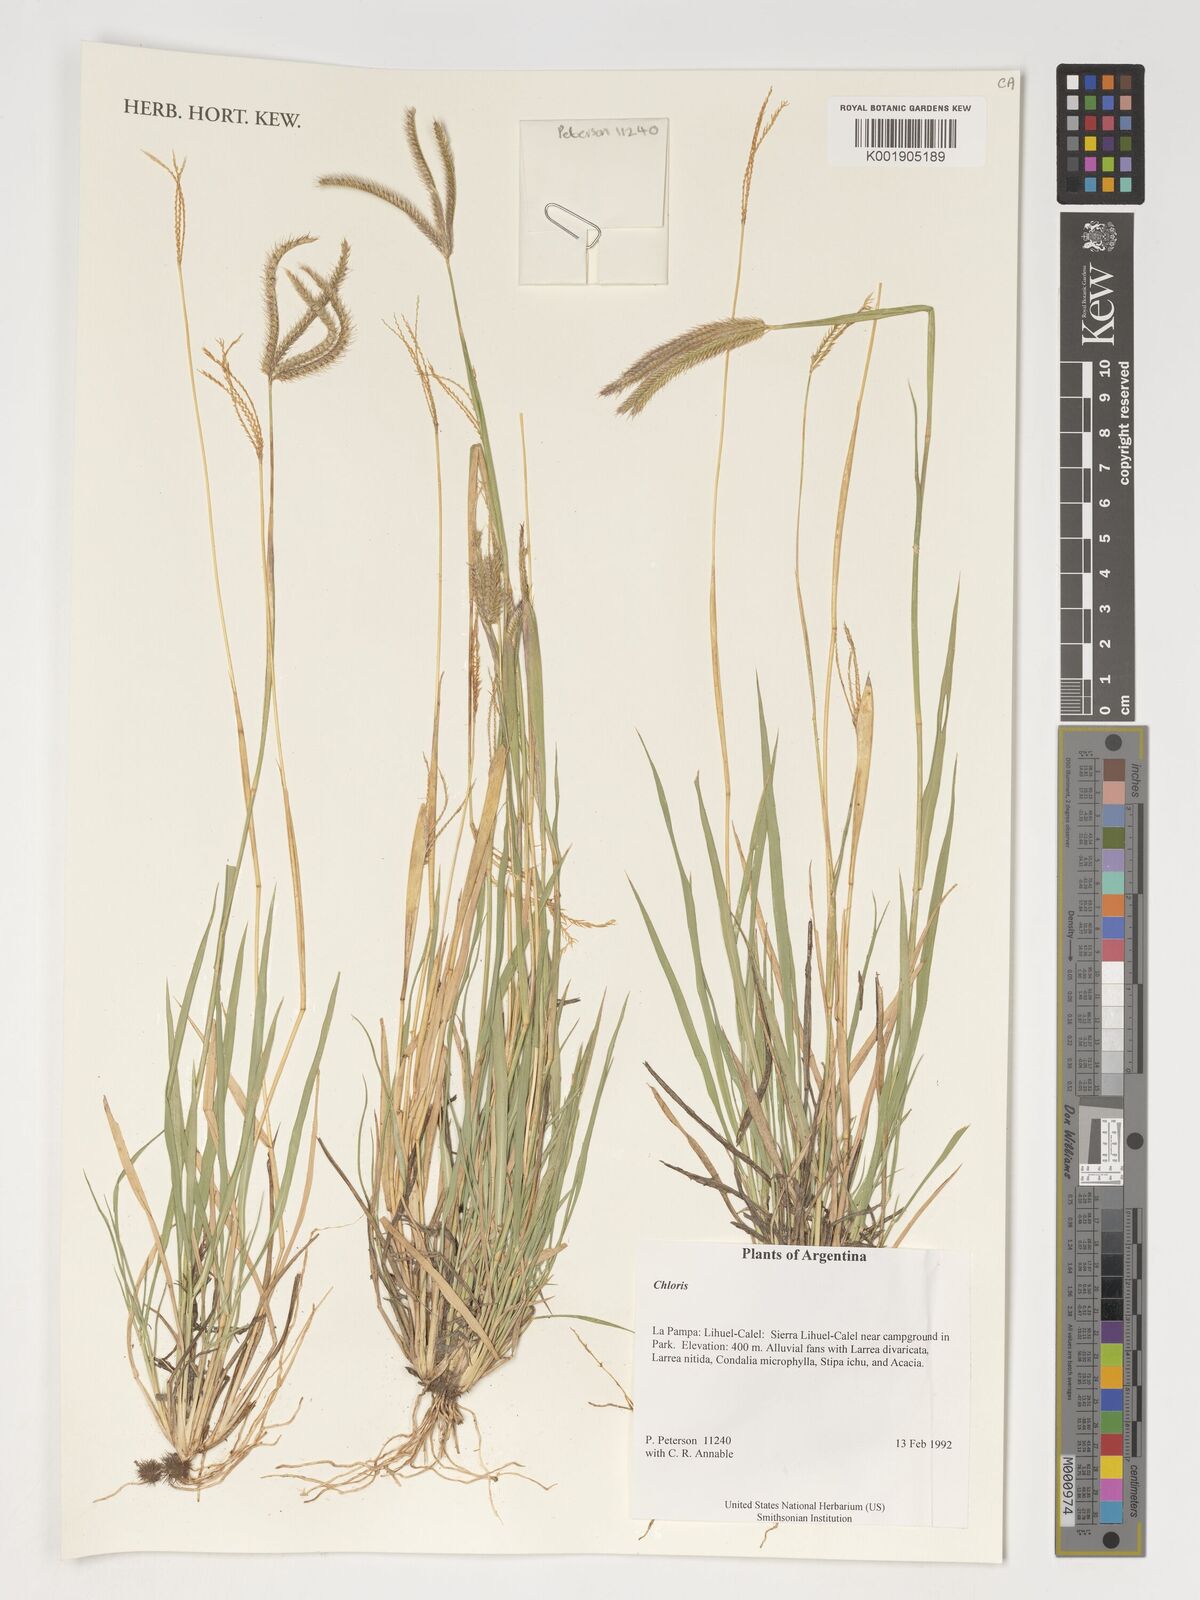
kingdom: Plantae
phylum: Tracheophyta
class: Liliopsida
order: Poales
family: Poaceae
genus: Chloris
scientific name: Chloris
